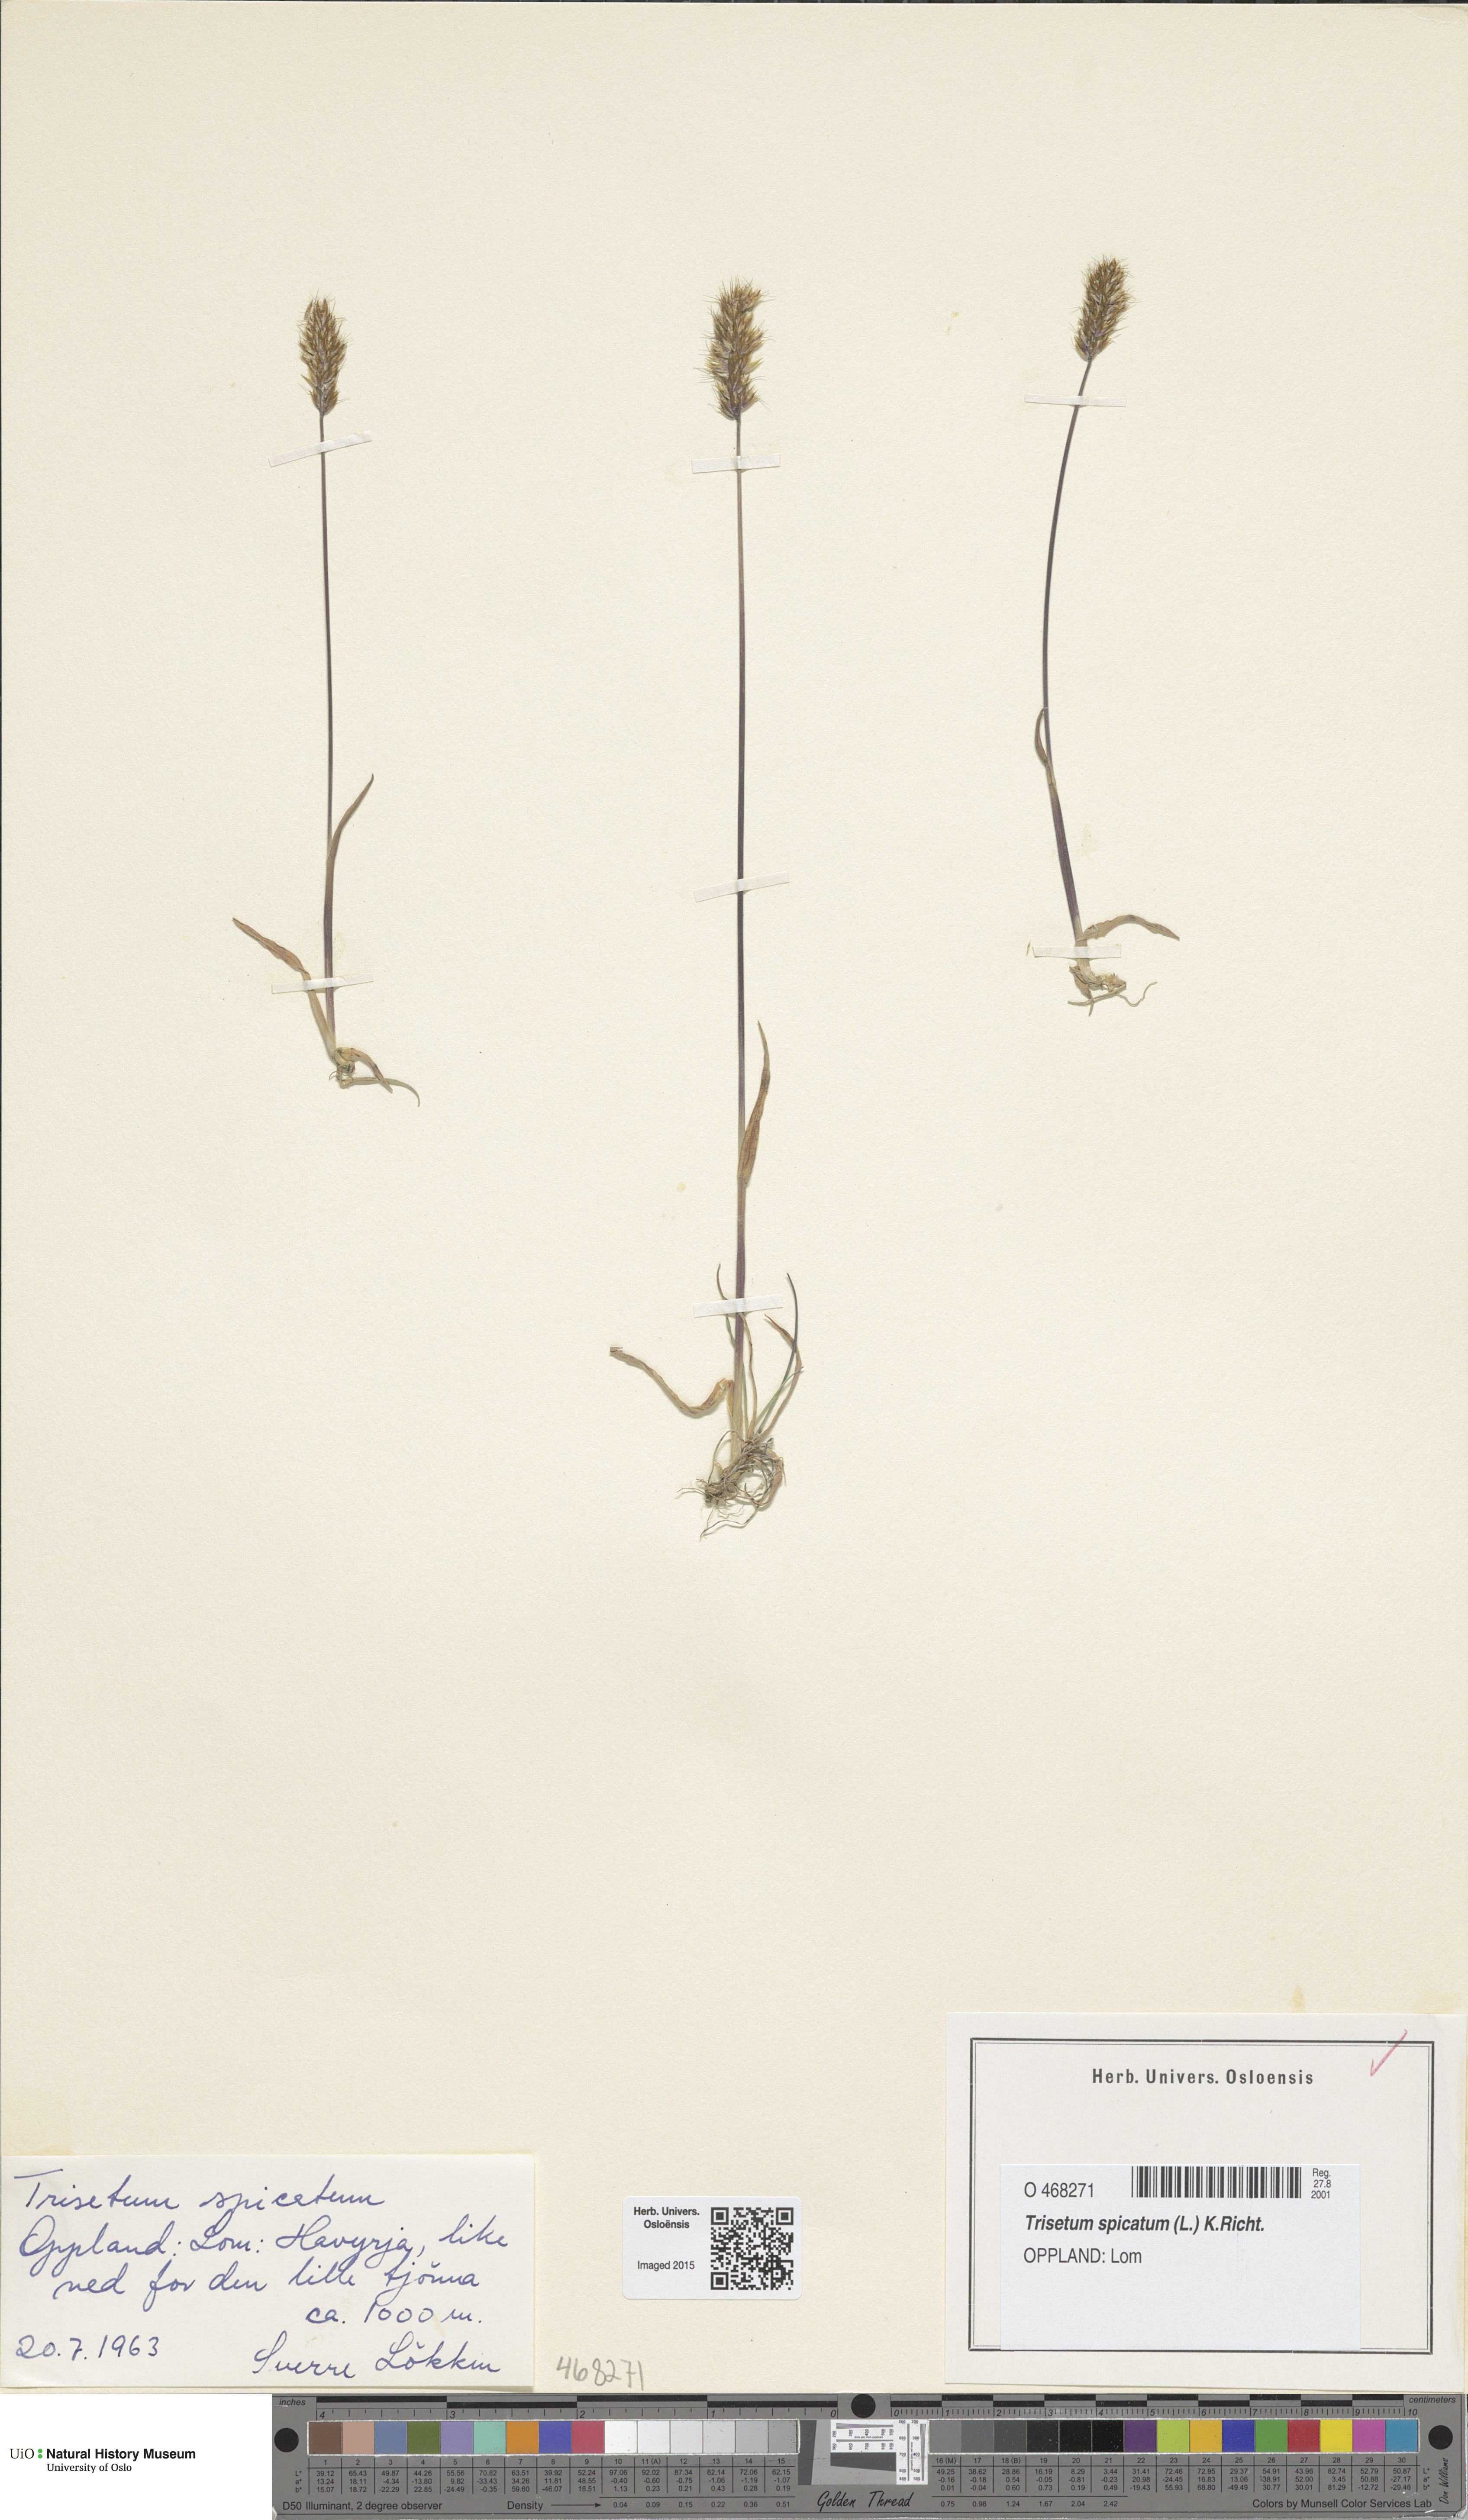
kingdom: Plantae
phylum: Tracheophyta
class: Liliopsida
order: Poales
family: Poaceae
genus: Koeleria
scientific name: Koeleria spicata
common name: Mountain trisetum
